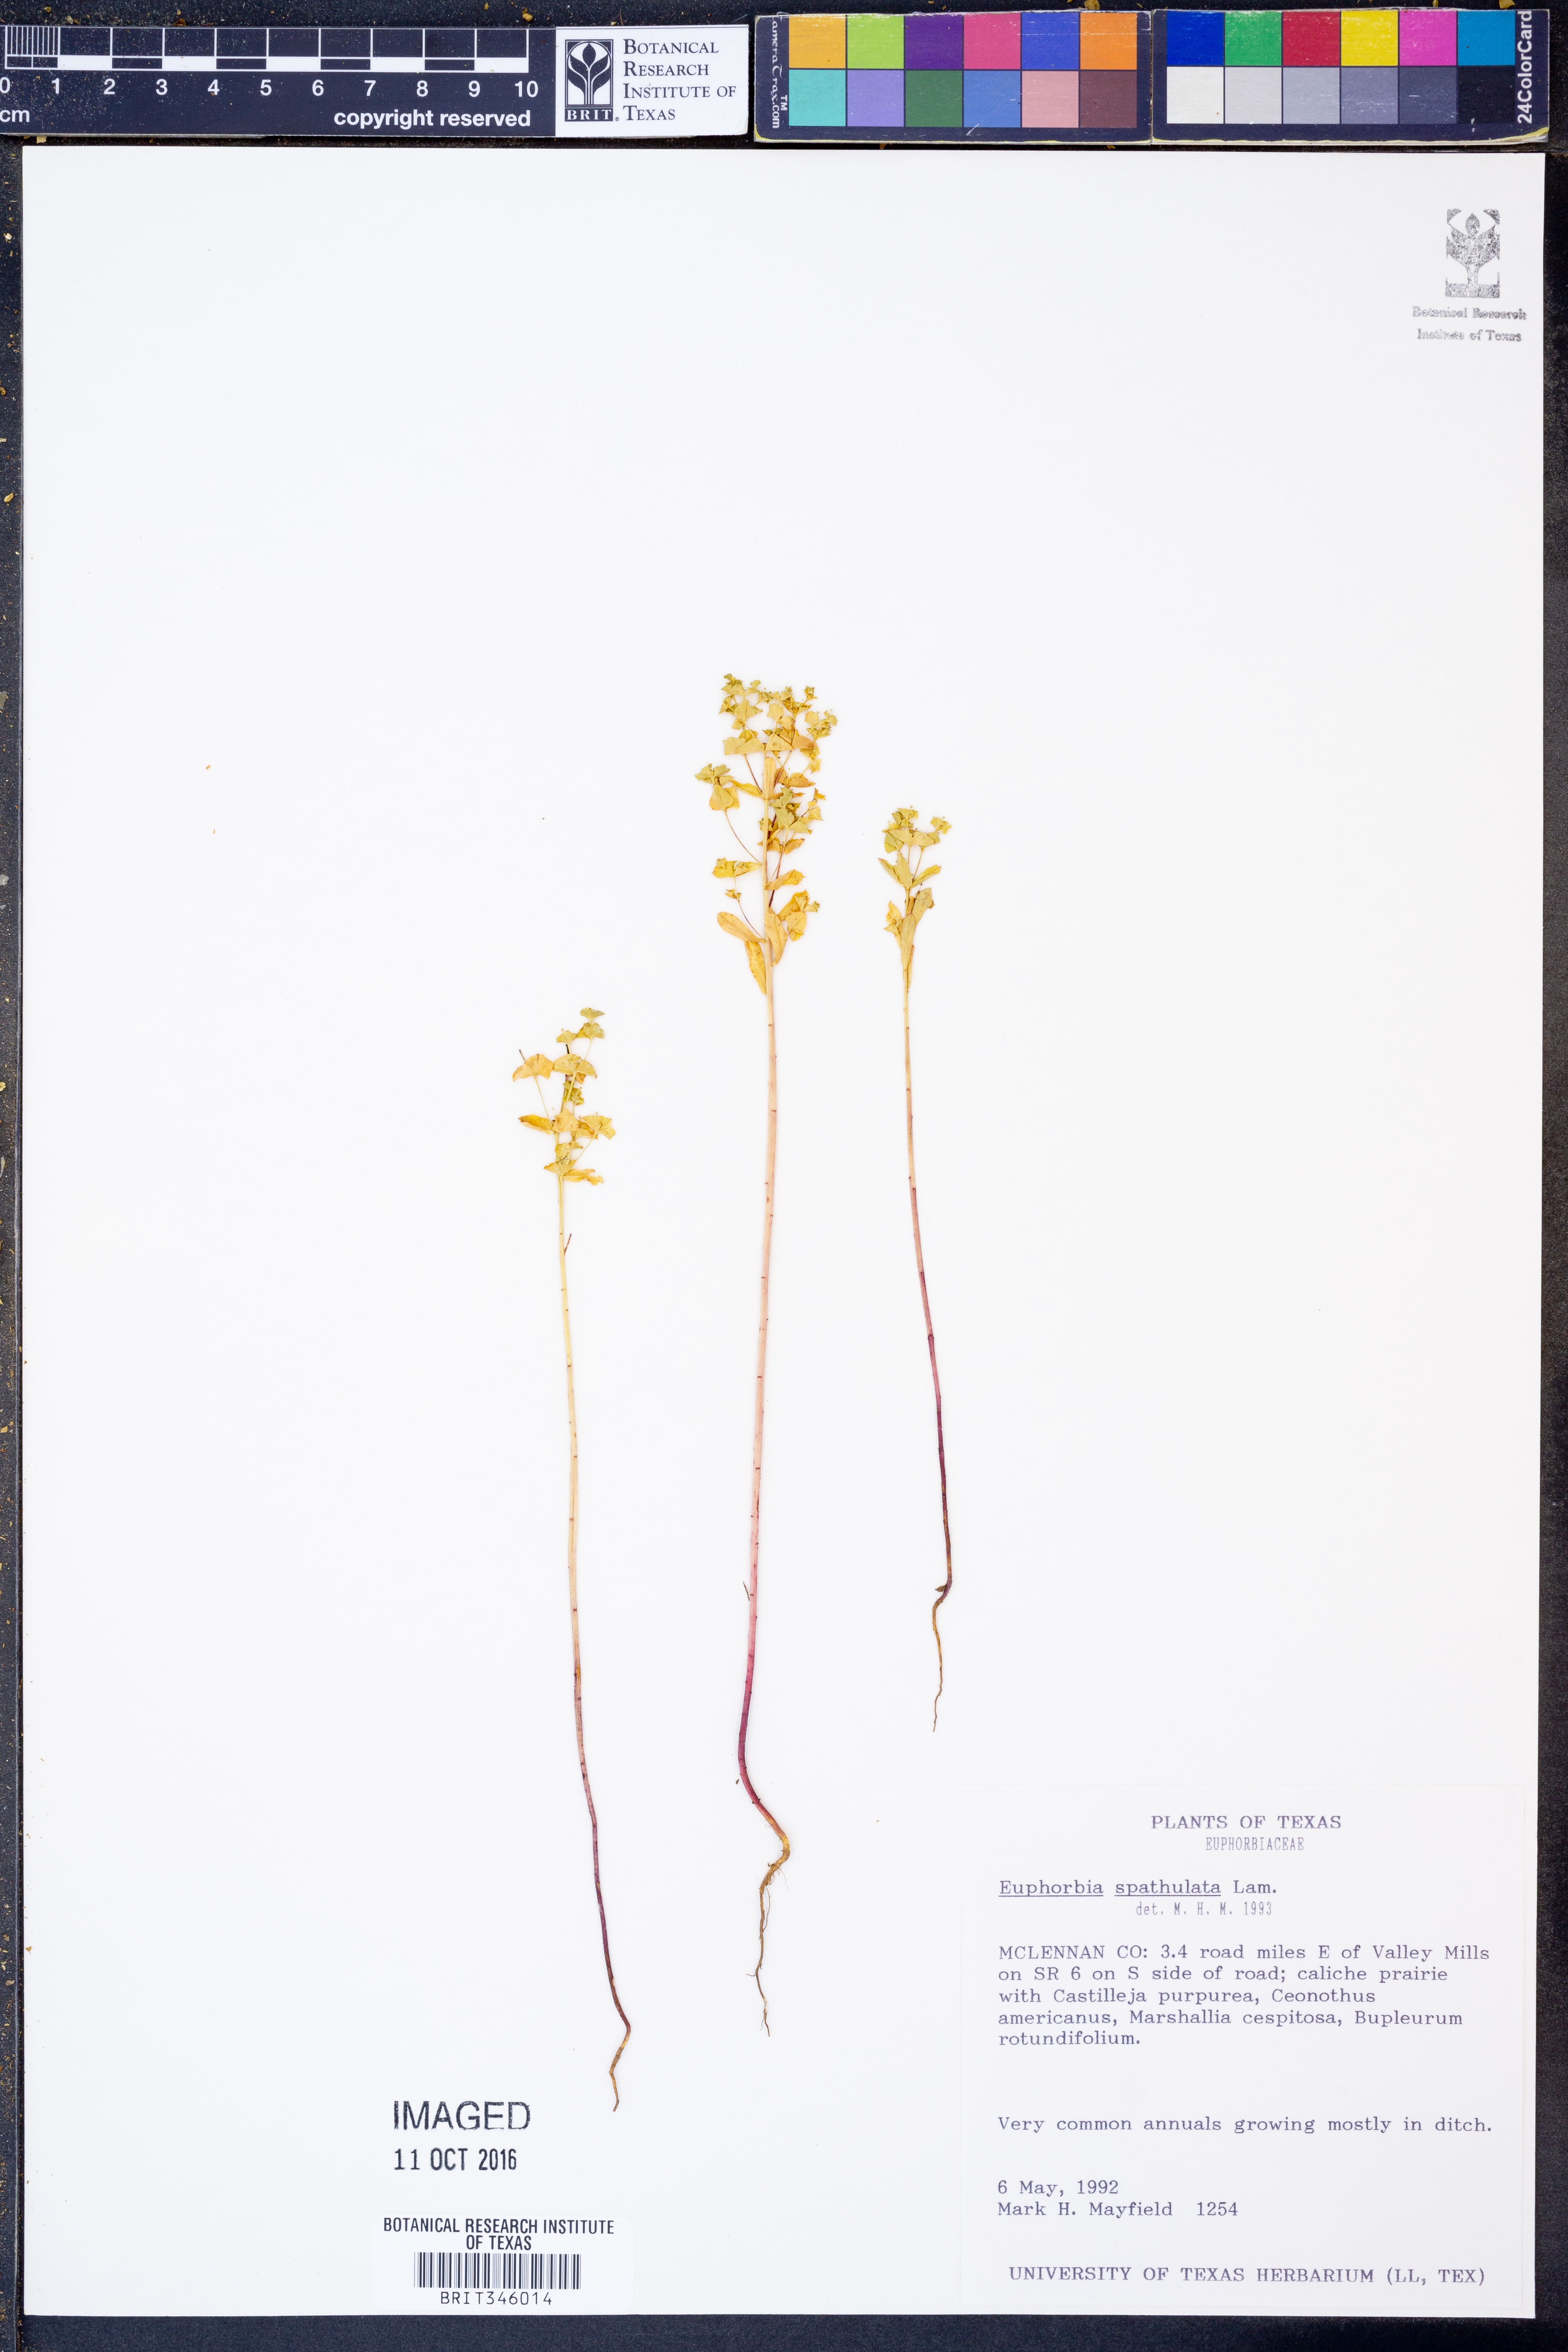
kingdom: Plantae
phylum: Tracheophyta
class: Magnoliopsida
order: Malpighiales
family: Euphorbiaceae
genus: Euphorbia
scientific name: Euphorbia spathulata
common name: Blunt spurge
